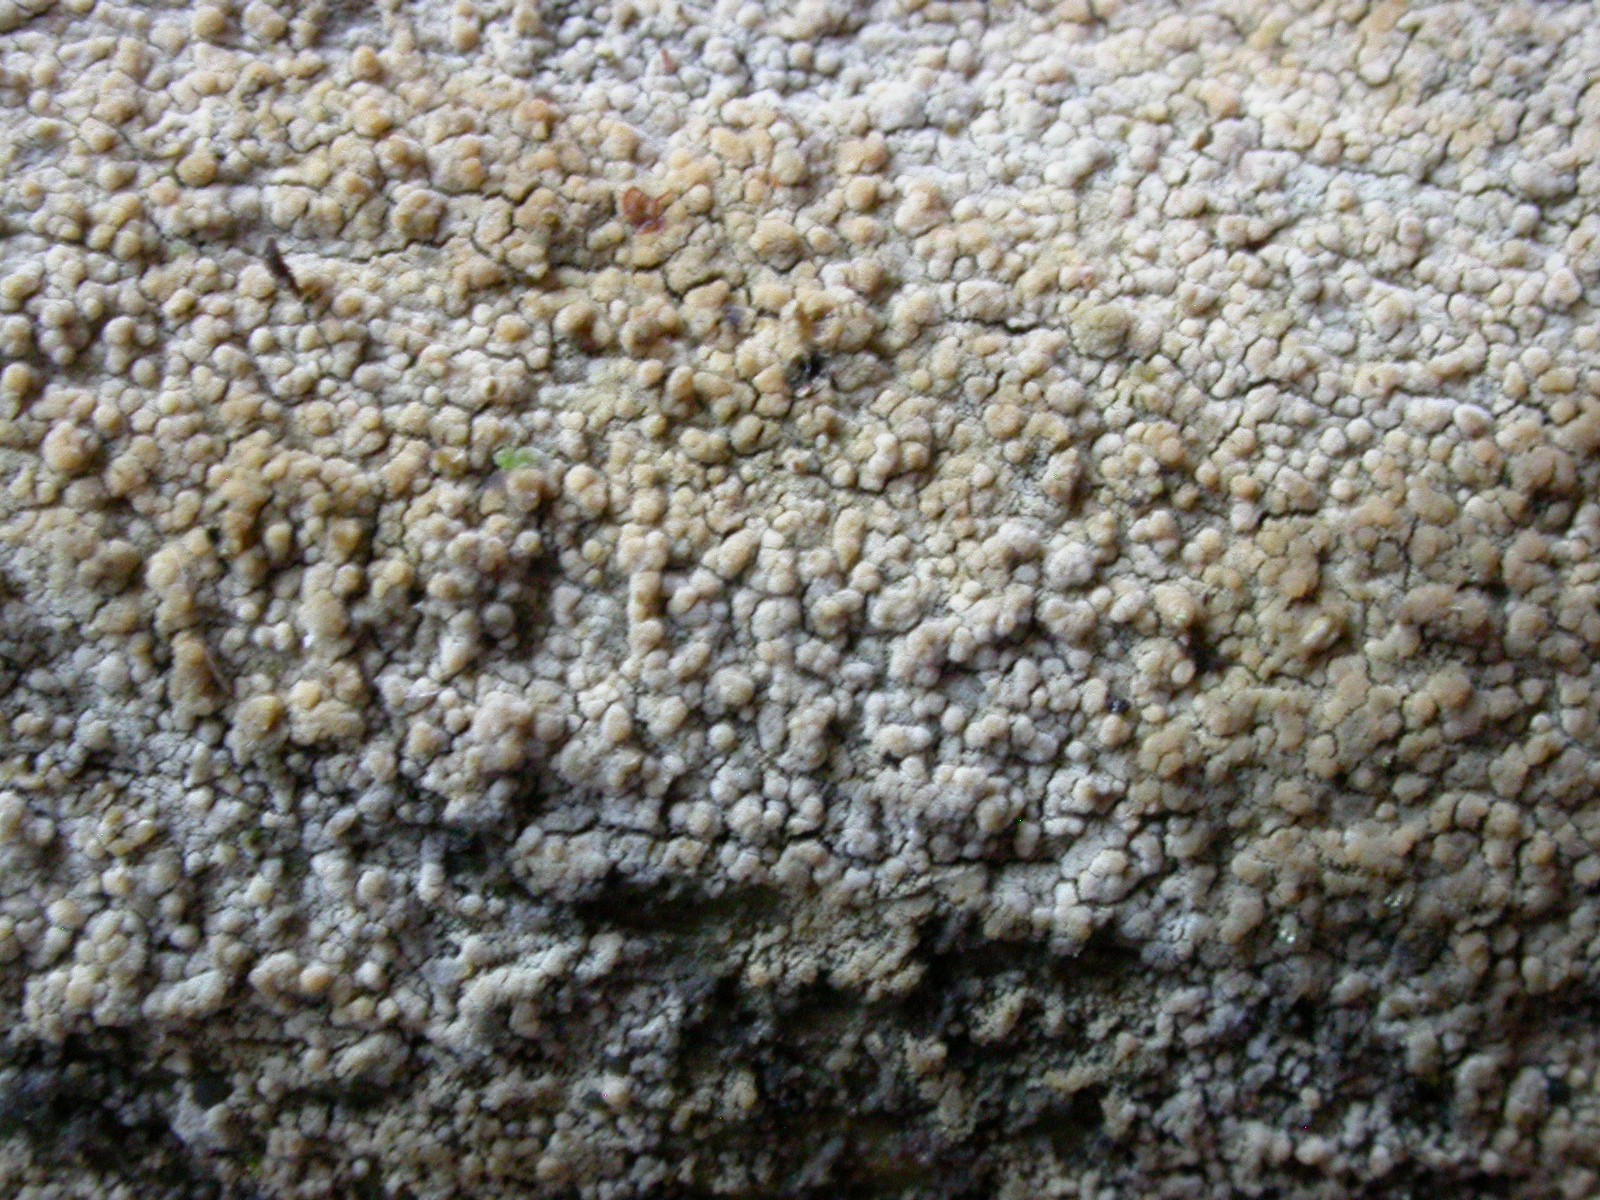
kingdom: Fungi
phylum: Basidiomycota
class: Agaricomycetes
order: Hymenochaetales
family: Hyphodontiaceae
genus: Hyphodontia
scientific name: Hyphodontia alutaria
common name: flaskerenser-nålehinde
